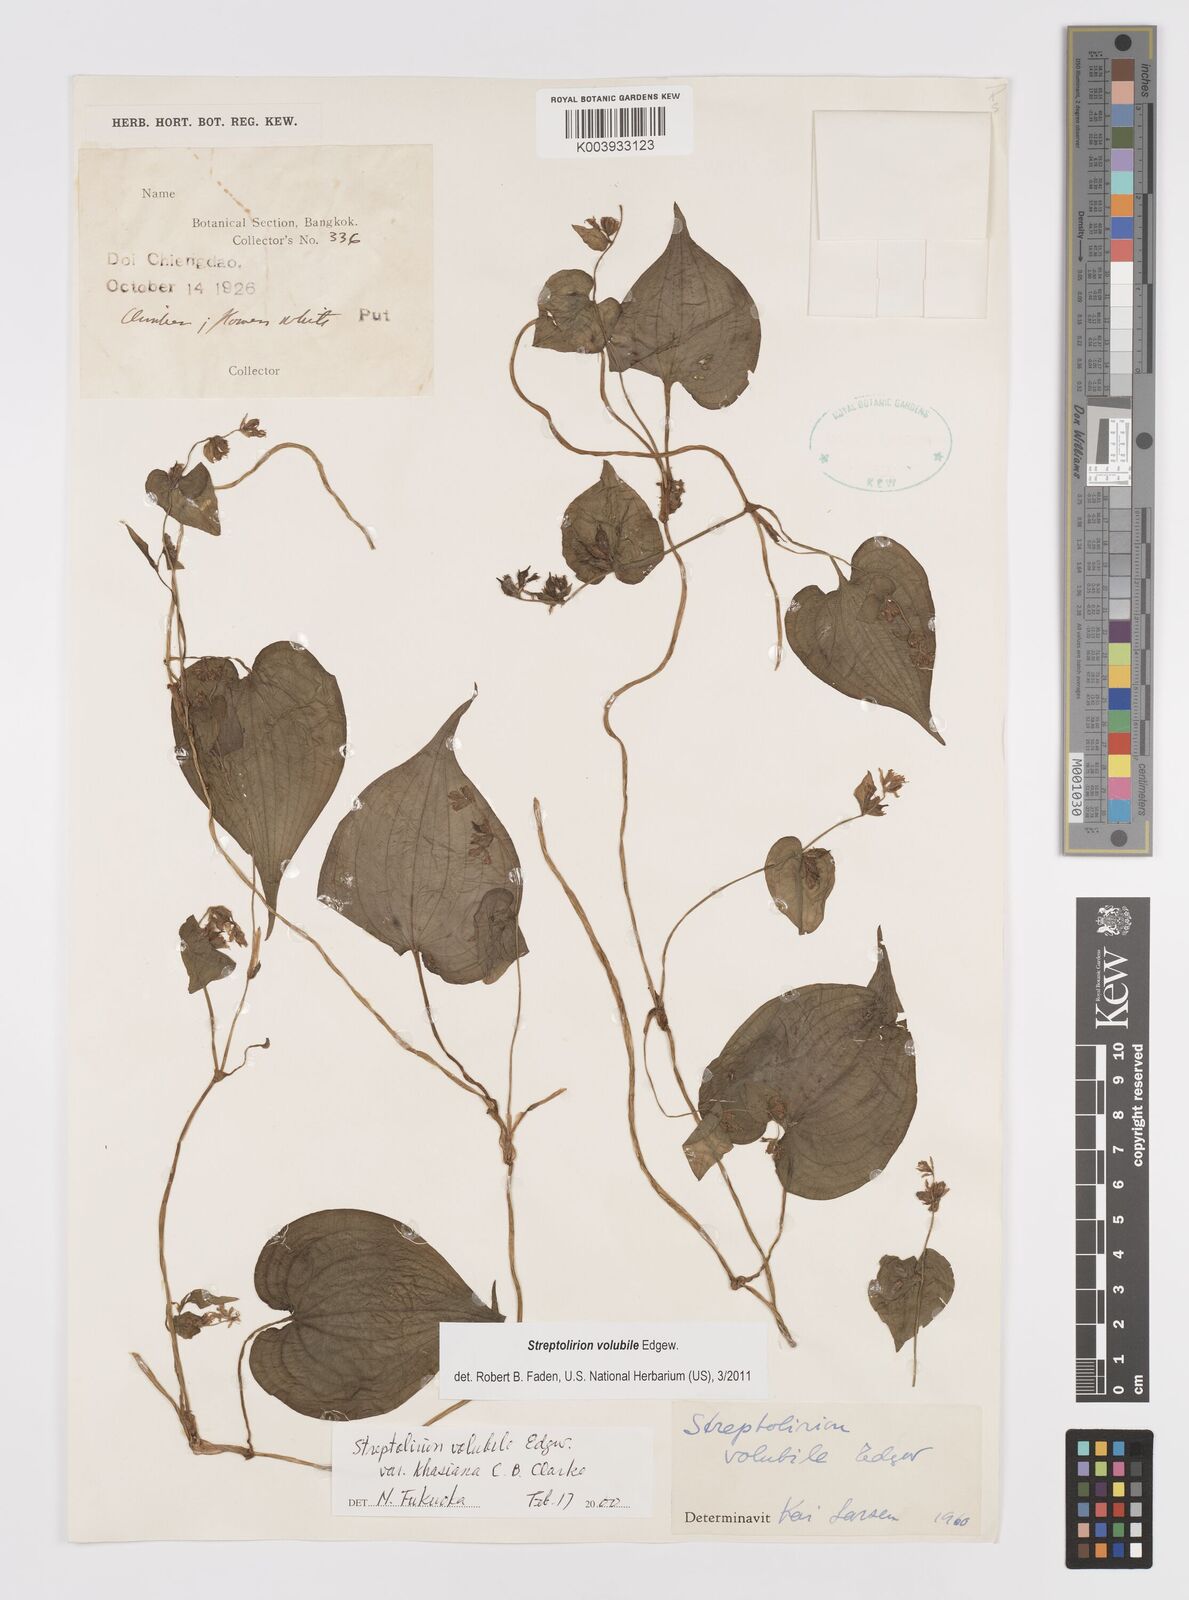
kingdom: Plantae
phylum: Tracheophyta
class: Liliopsida
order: Commelinales
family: Commelinaceae
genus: Streptolirion
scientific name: Streptolirion volubile
